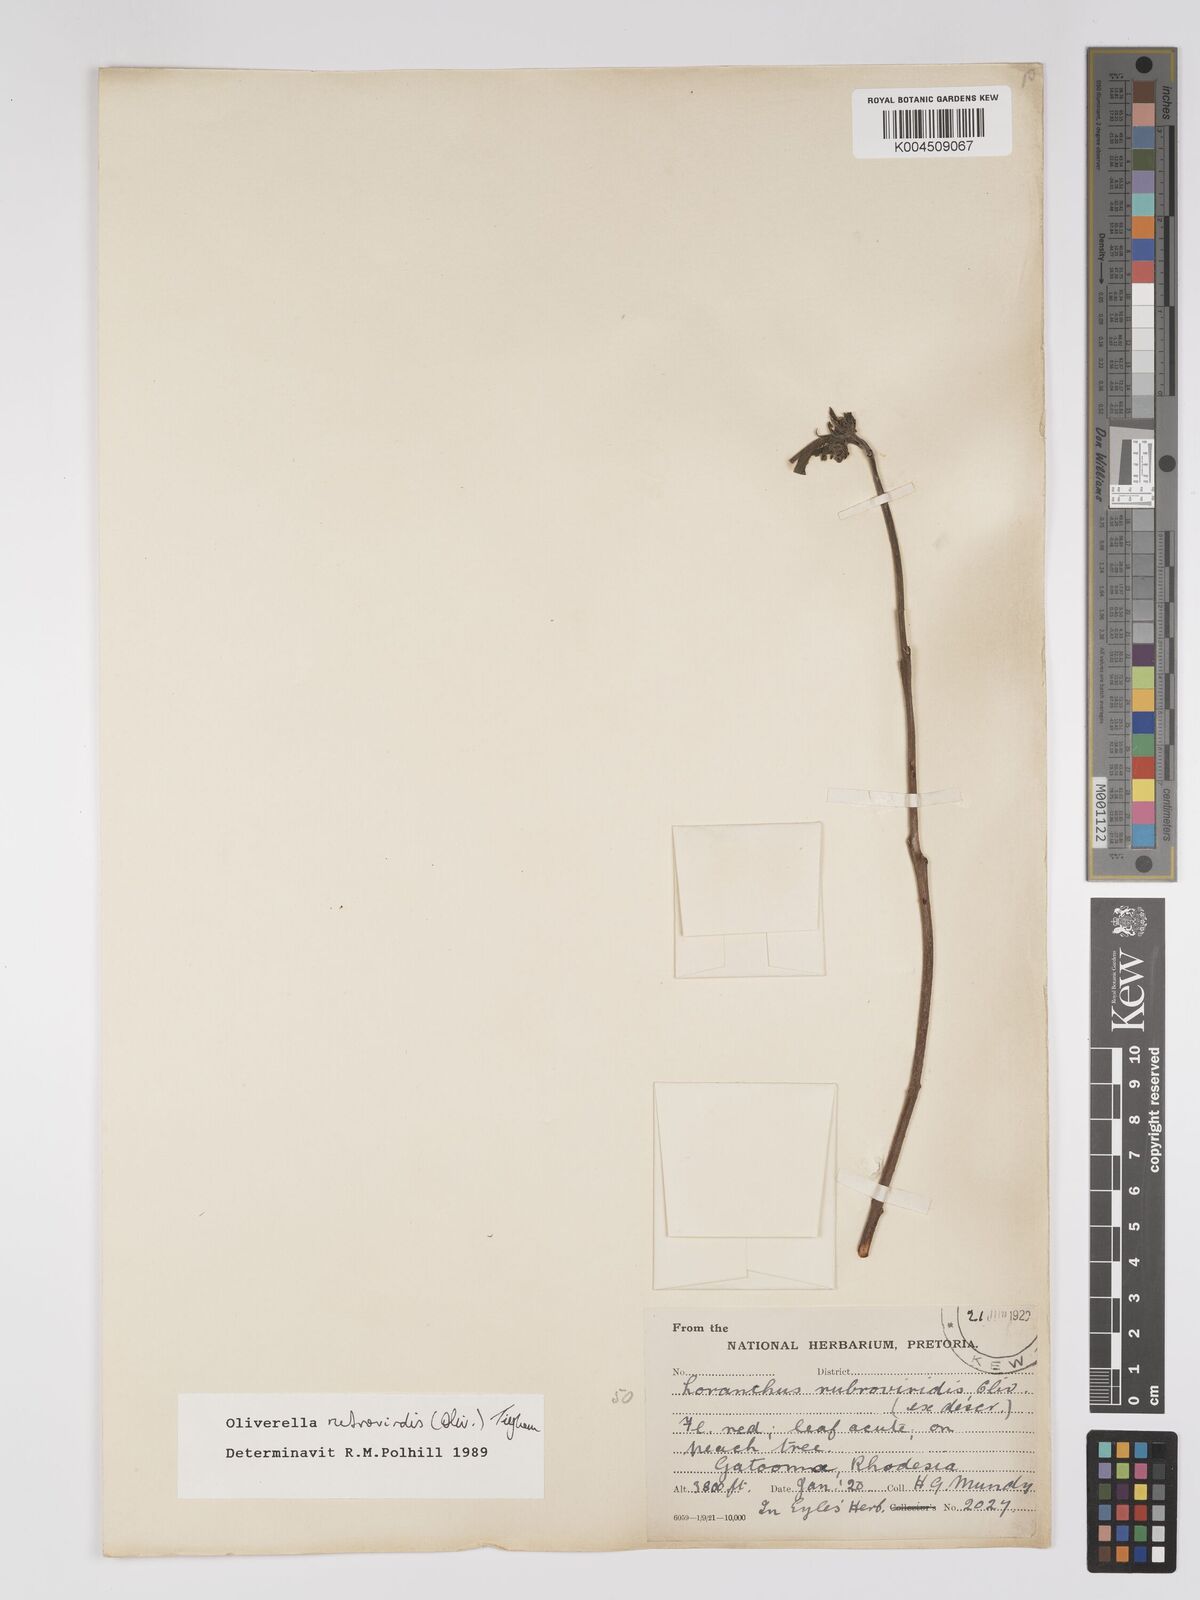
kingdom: Plantae
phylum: Tracheophyta
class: Magnoliopsida
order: Santalales
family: Loranthaceae
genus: Oliverella
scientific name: Oliverella rubroviridis
